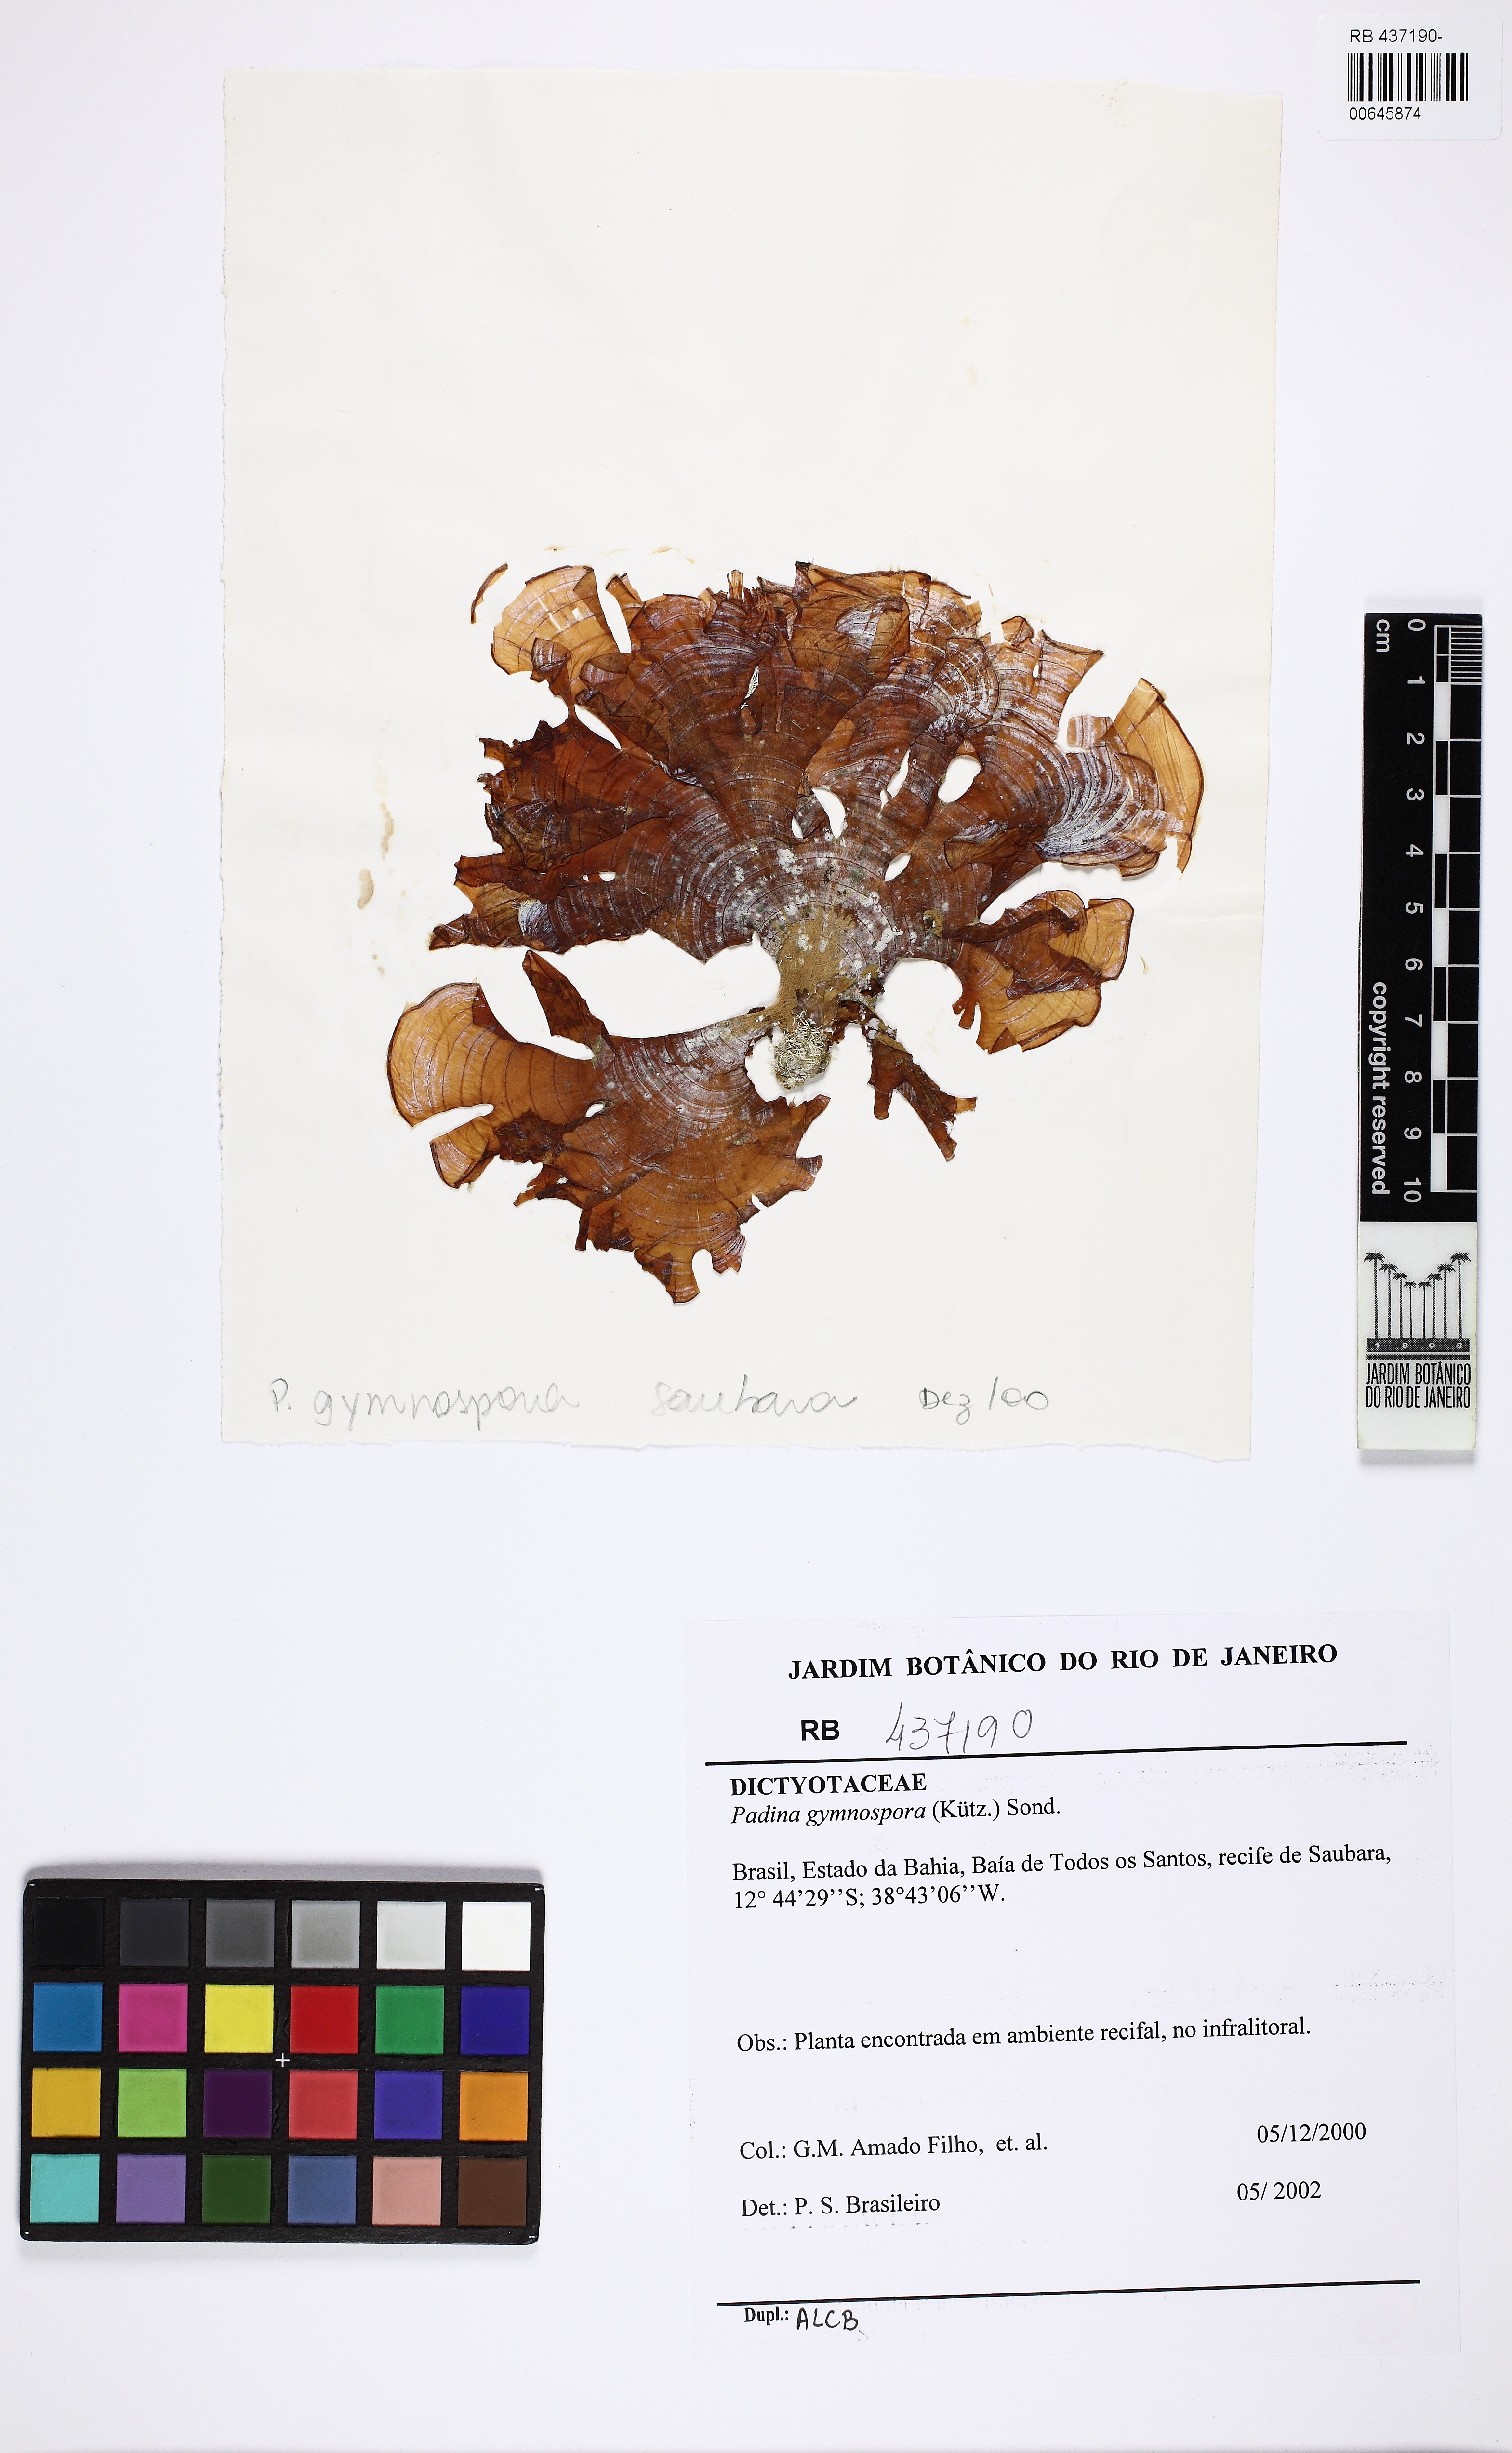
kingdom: Chromista
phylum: Ochrophyta
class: Phaeophyceae
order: Dictyotales
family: Dictyotaceae
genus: Padina
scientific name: Padina gymnospora
